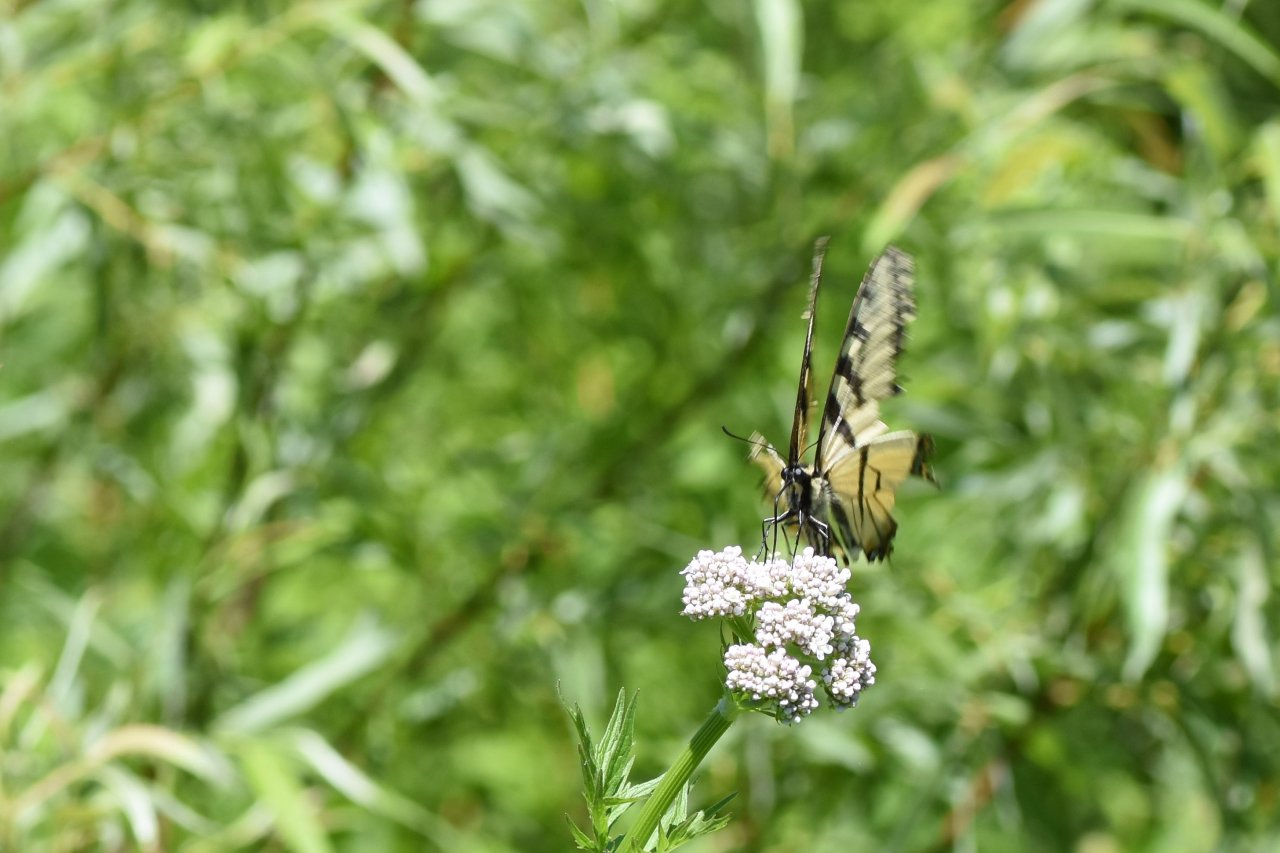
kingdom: Animalia
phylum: Arthropoda
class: Insecta
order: Lepidoptera
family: Papilionidae
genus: Pterourus
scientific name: Pterourus canadensis
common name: Canadian Tiger Swallowtail
